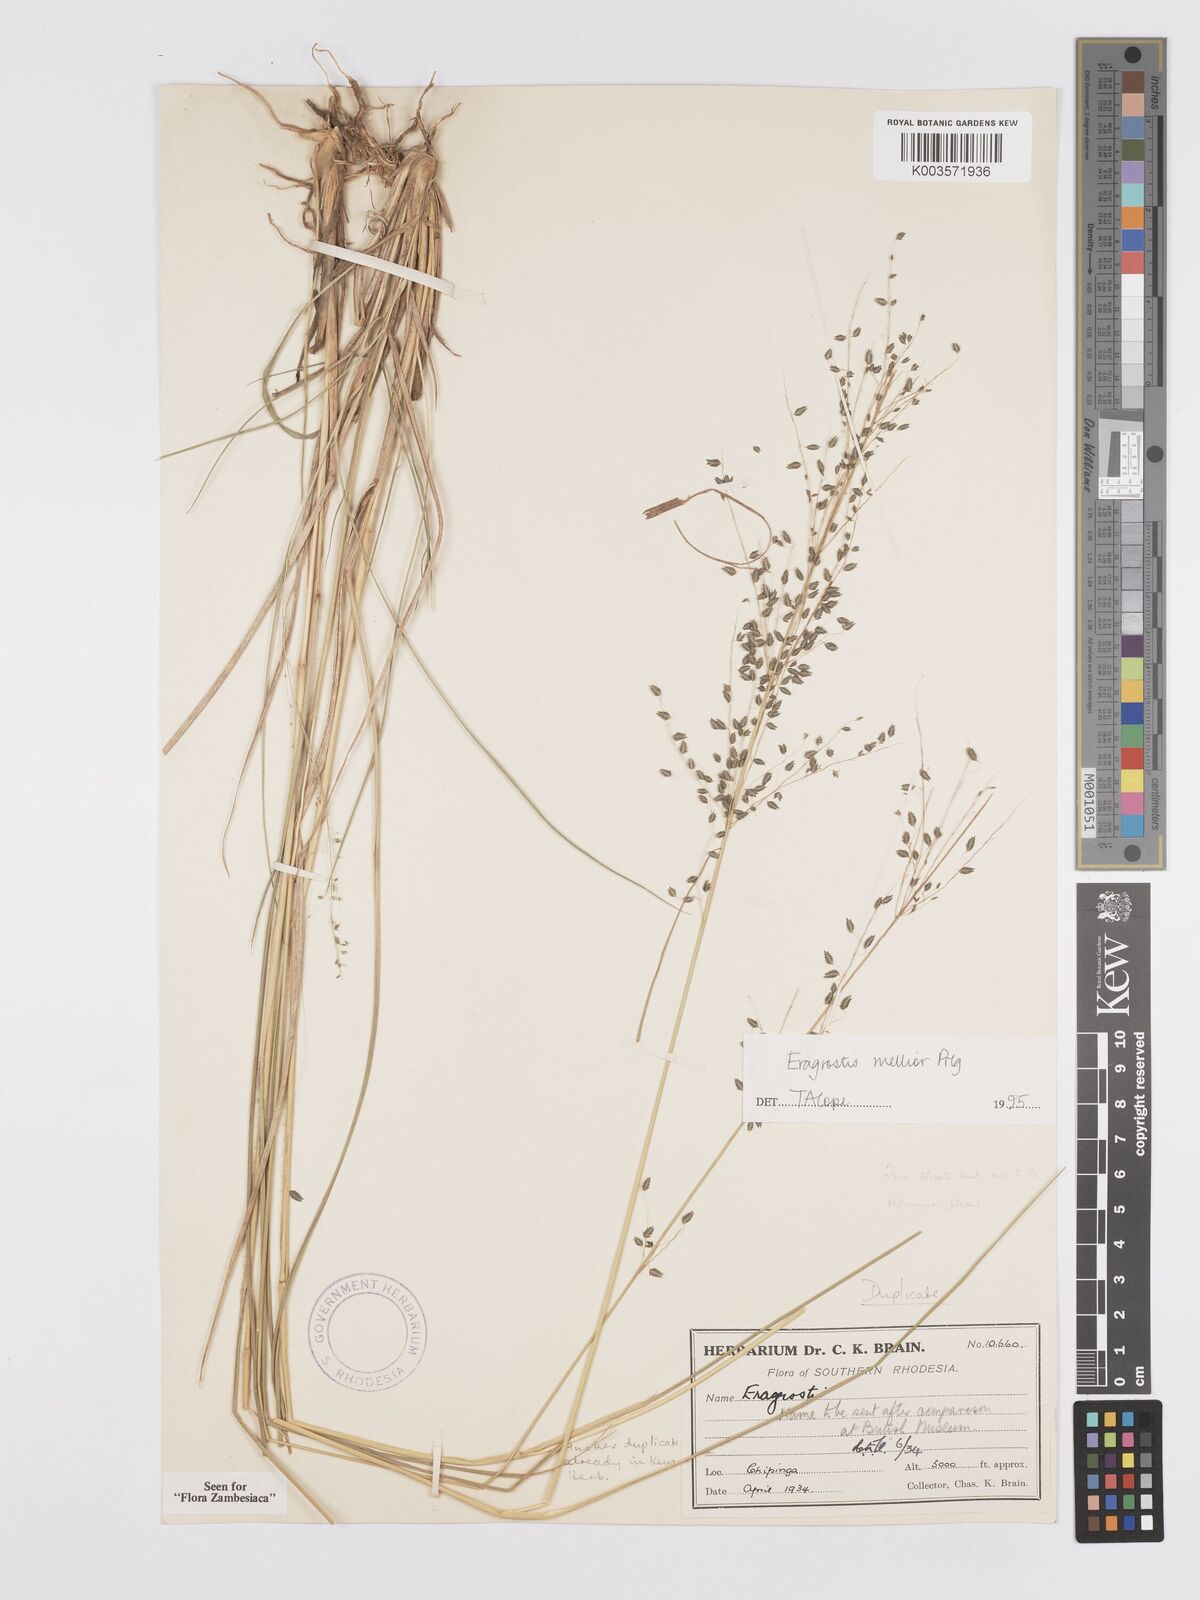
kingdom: Plantae
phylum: Tracheophyta
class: Liliopsida
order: Poales
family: Poaceae
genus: Eragrostis
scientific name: Eragrostis mollior
